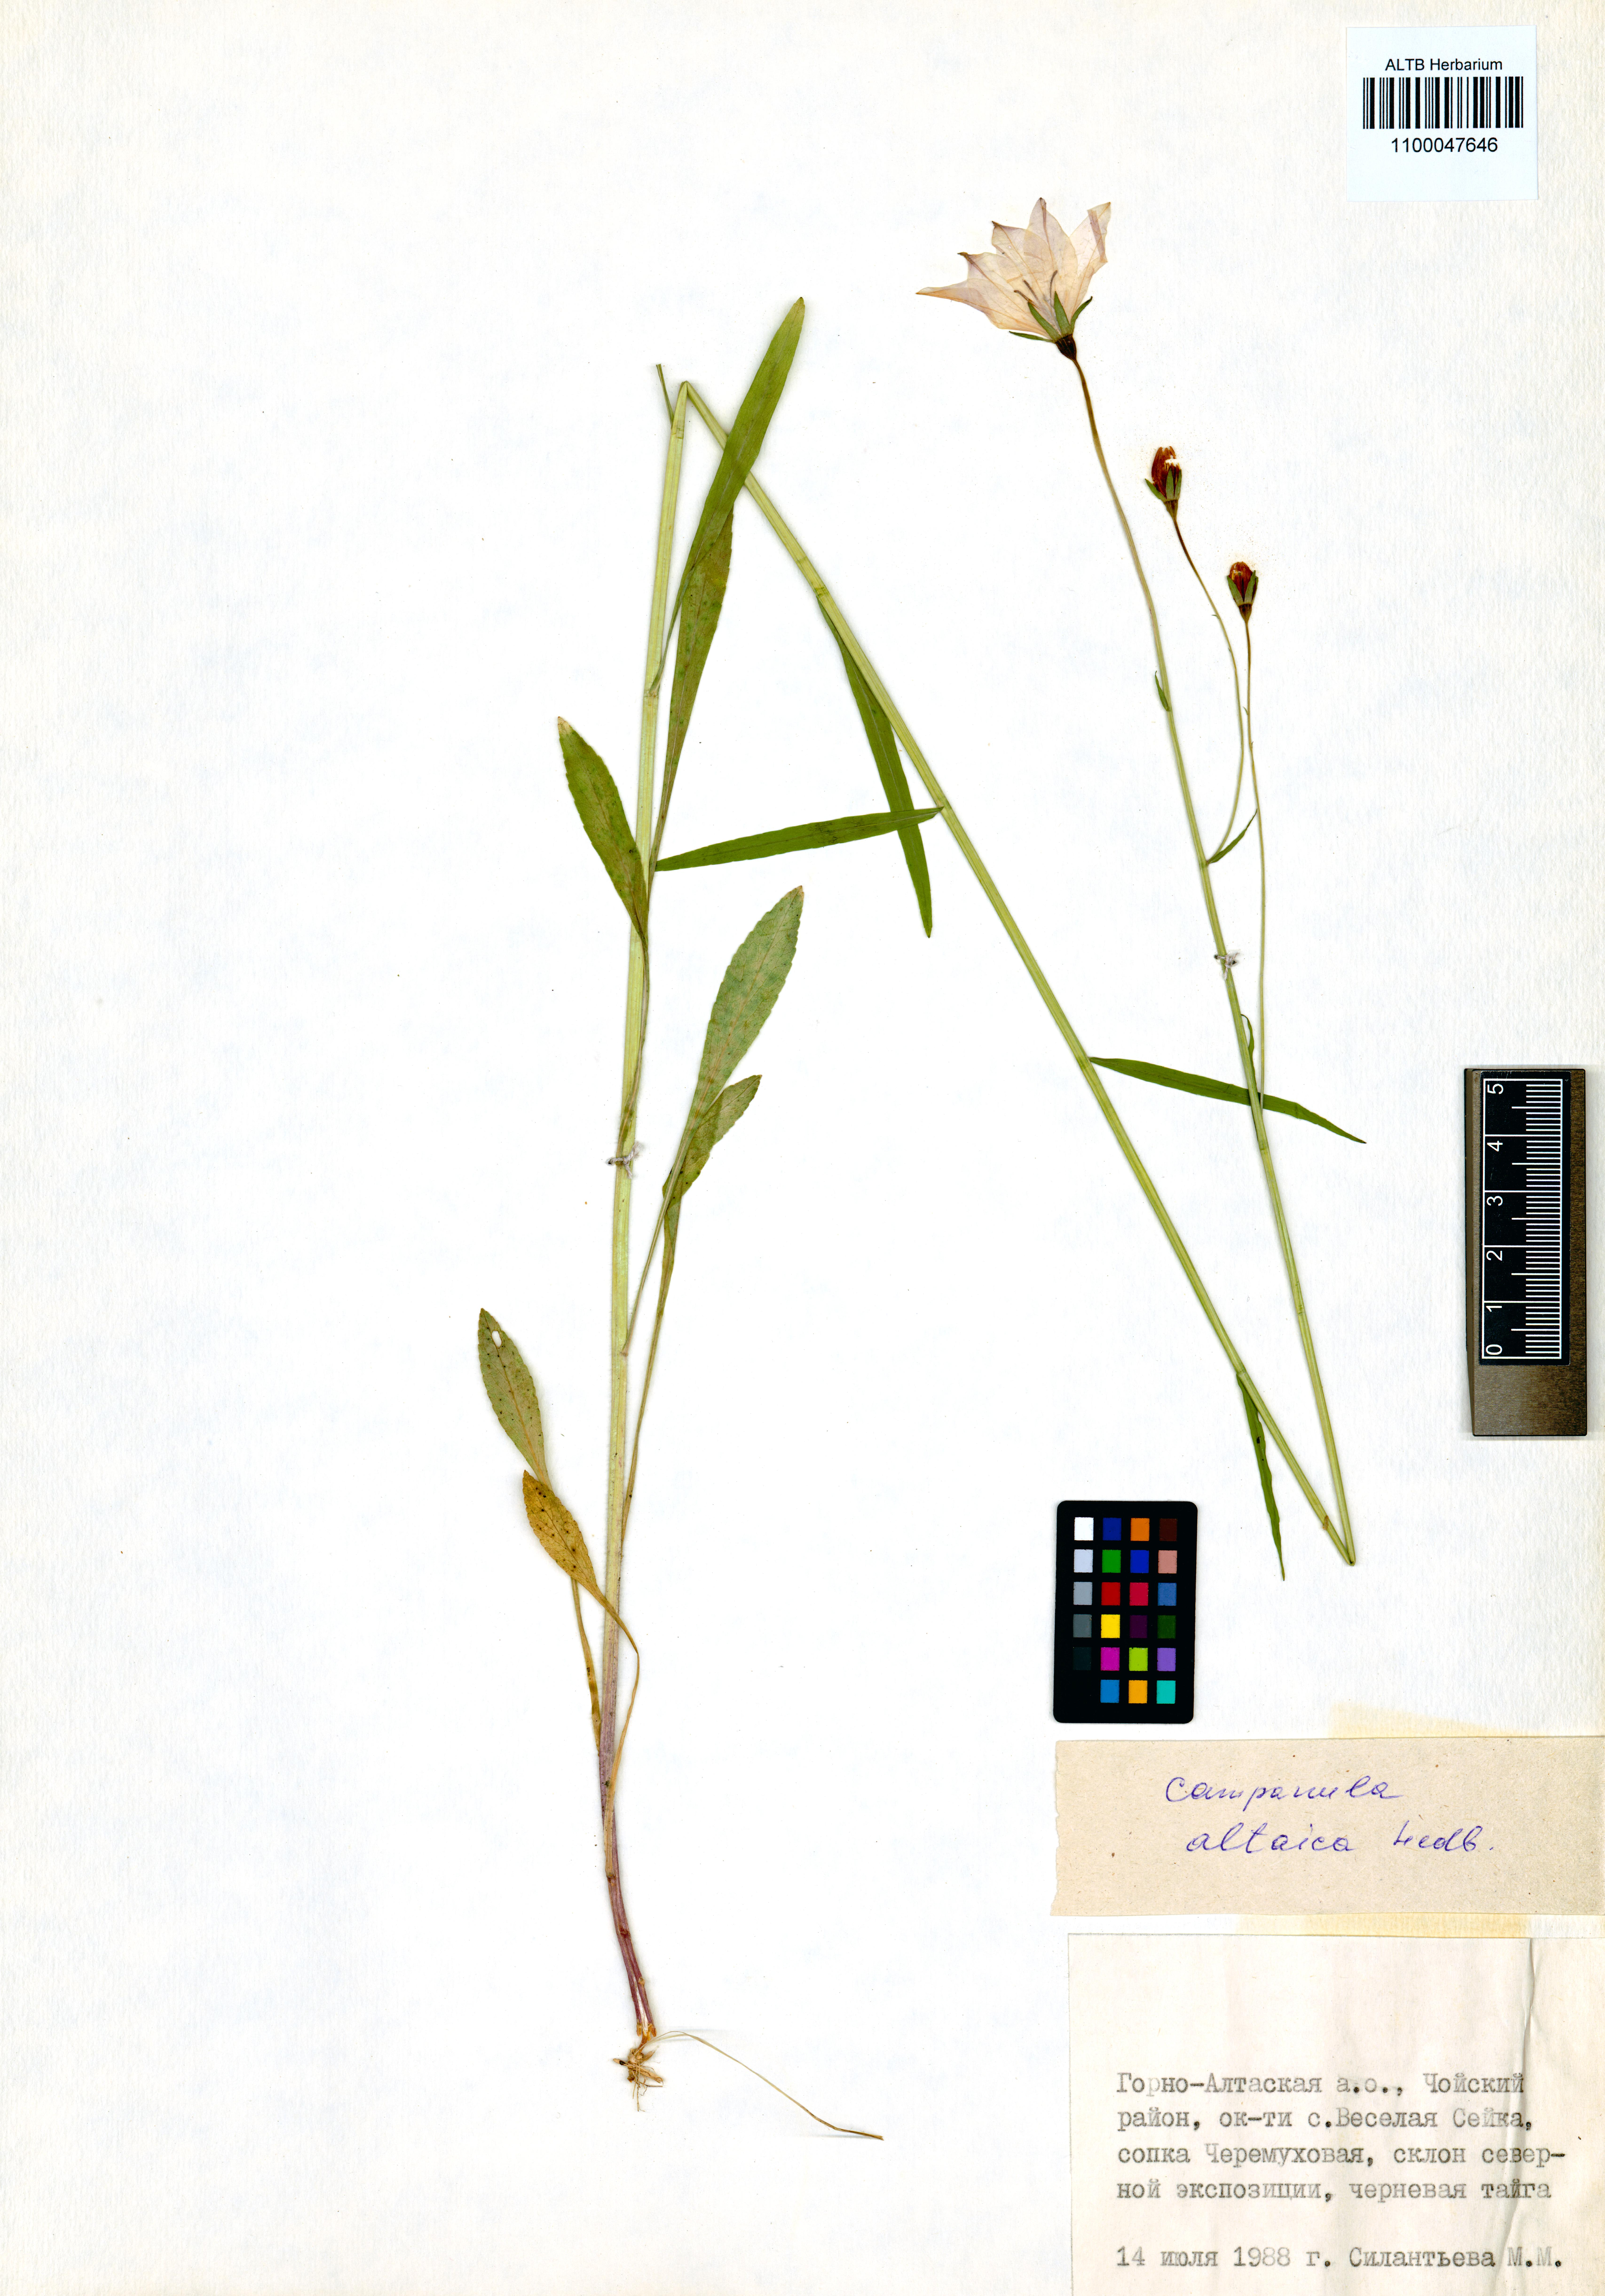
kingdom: Plantae
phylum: Tracheophyta
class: Magnoliopsida
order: Asterales
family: Campanulaceae
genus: Campanula
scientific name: Campanula stevenii
